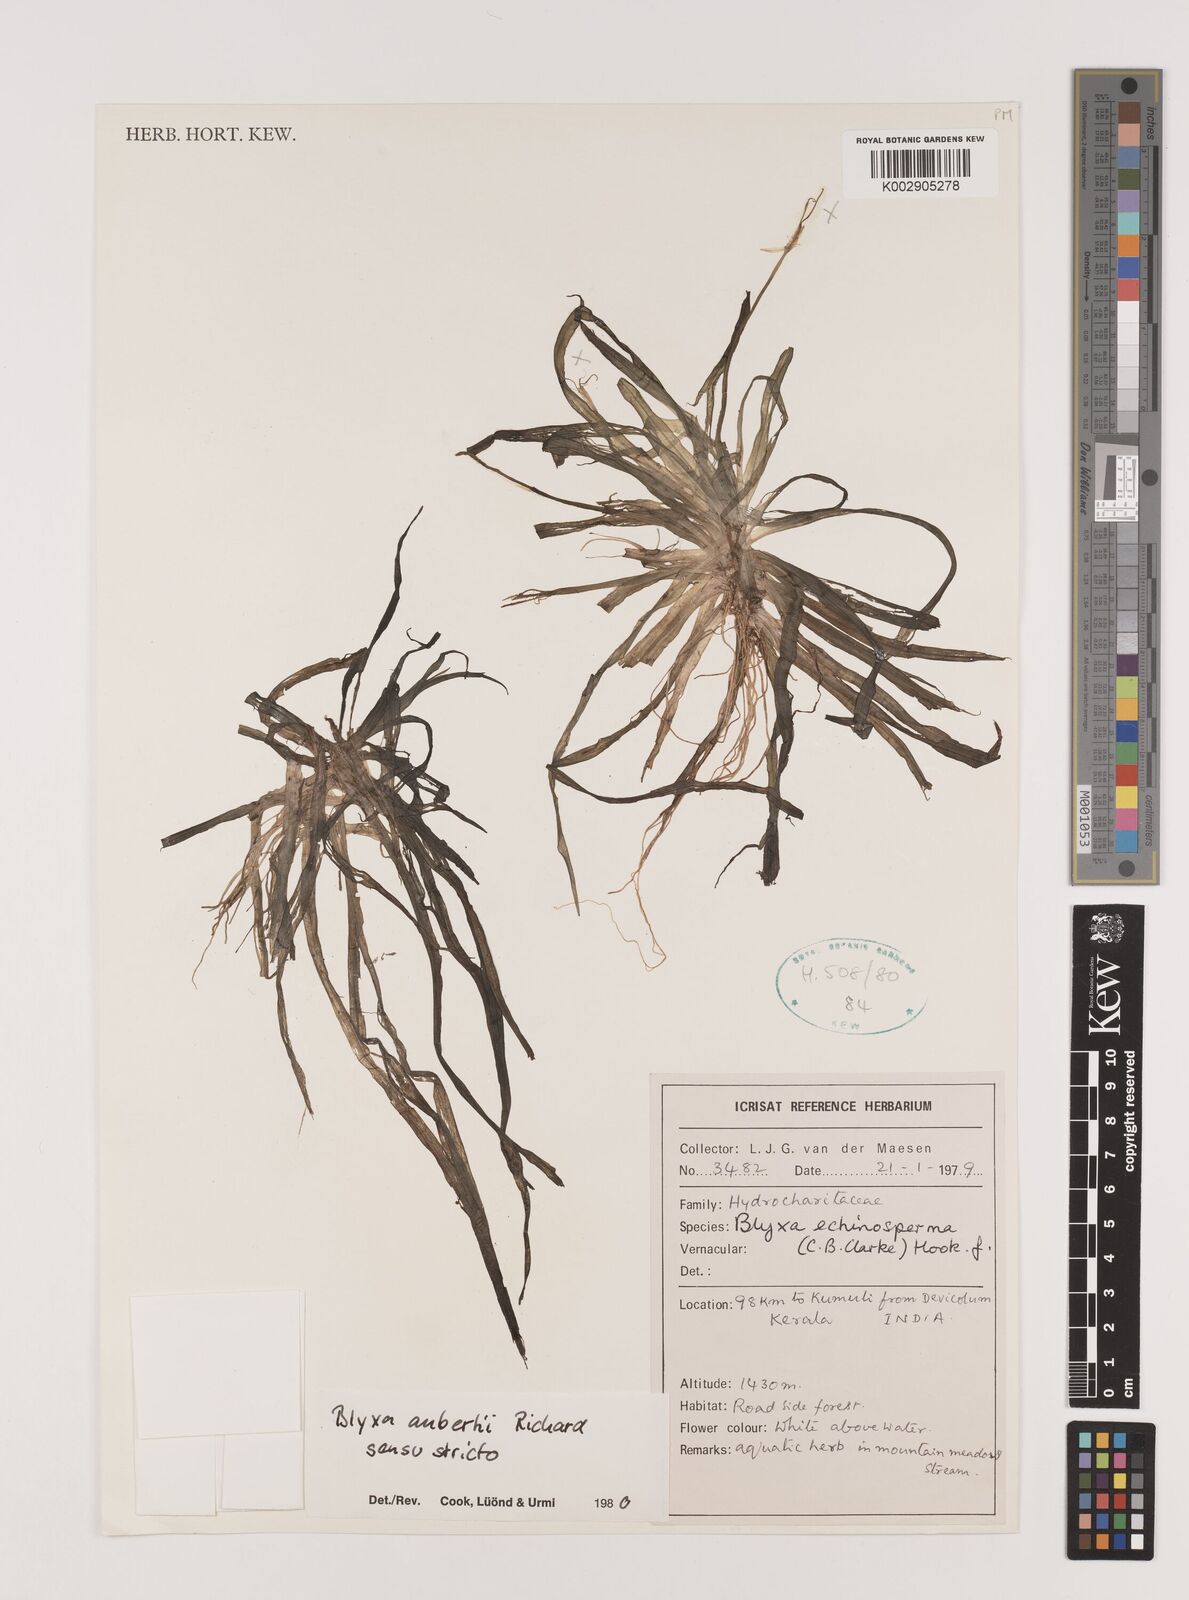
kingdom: Plantae
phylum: Tracheophyta
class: Liliopsida
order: Alismatales
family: Hydrocharitaceae
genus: Blyxa
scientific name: Blyxa aubertii
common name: Roundfruit blyxa
